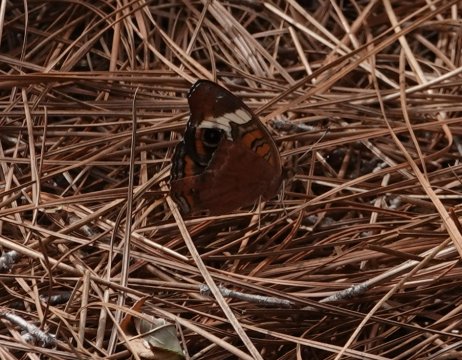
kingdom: Animalia
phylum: Arthropoda
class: Insecta
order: Lepidoptera
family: Nymphalidae
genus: Junonia
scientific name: Junonia coenia
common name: Common Buckeye
